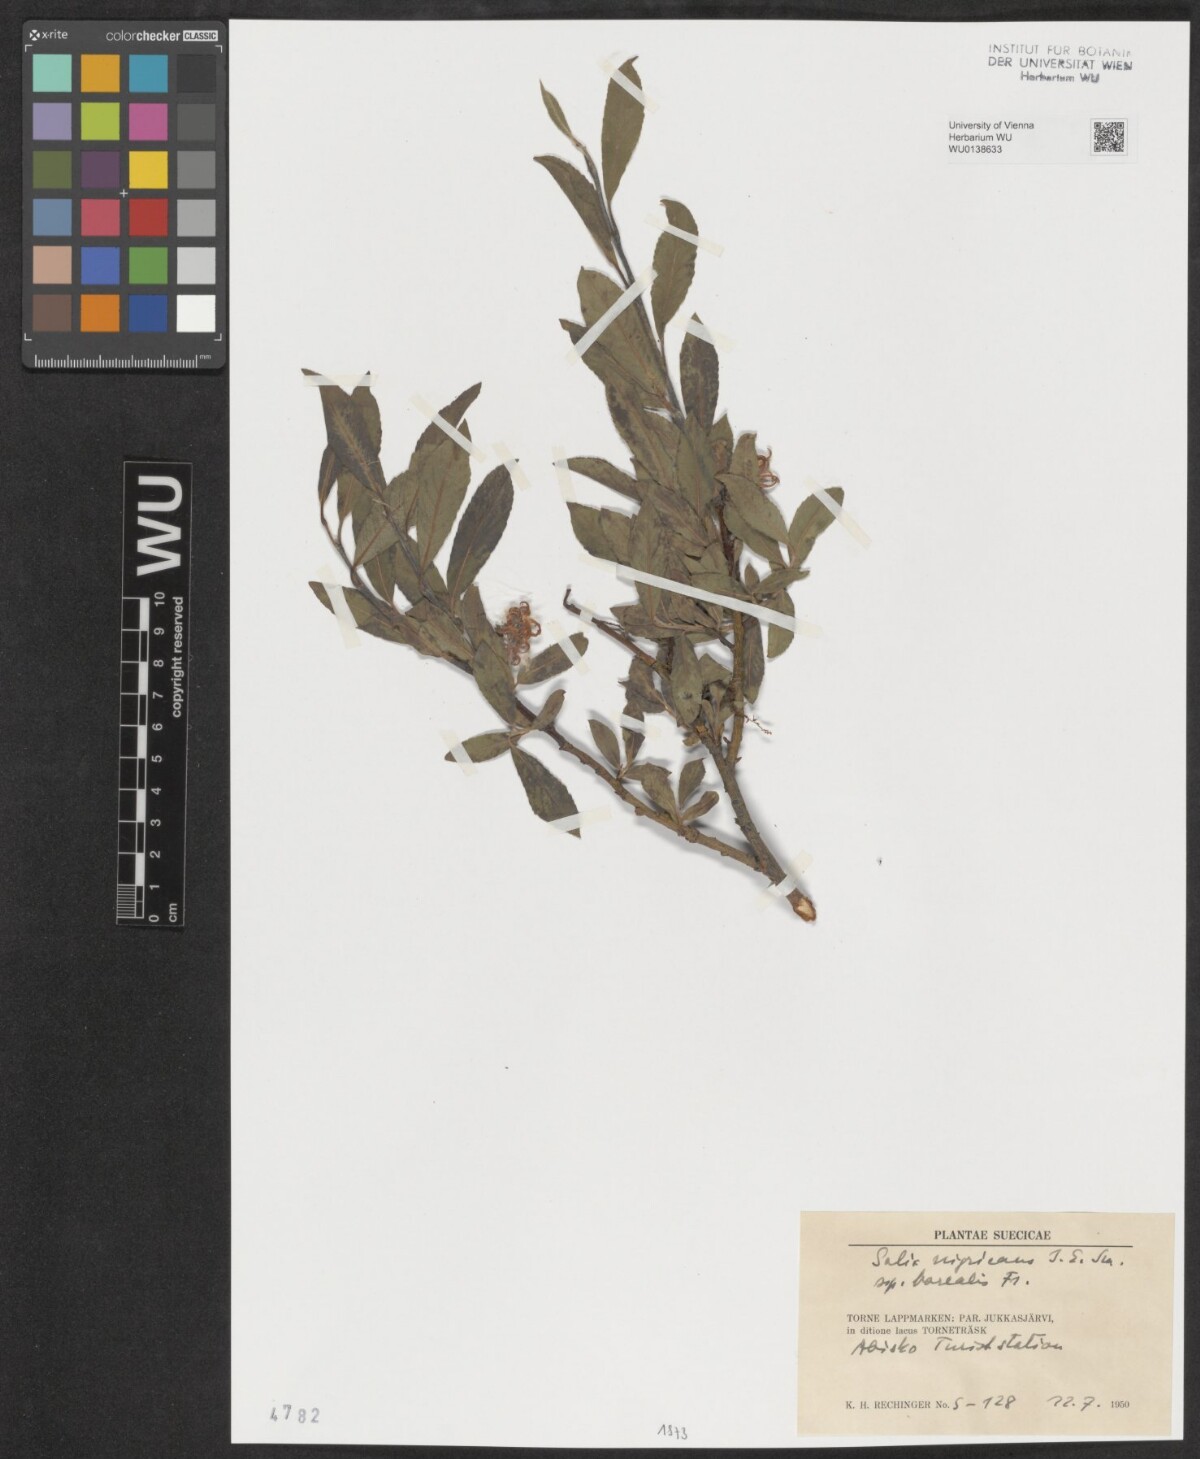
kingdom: Plantae
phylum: Tracheophyta
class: Magnoliopsida
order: Malpighiales
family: Salicaceae
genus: Salix
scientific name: Salix myrsinifolia
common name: Dark-leaved willow
